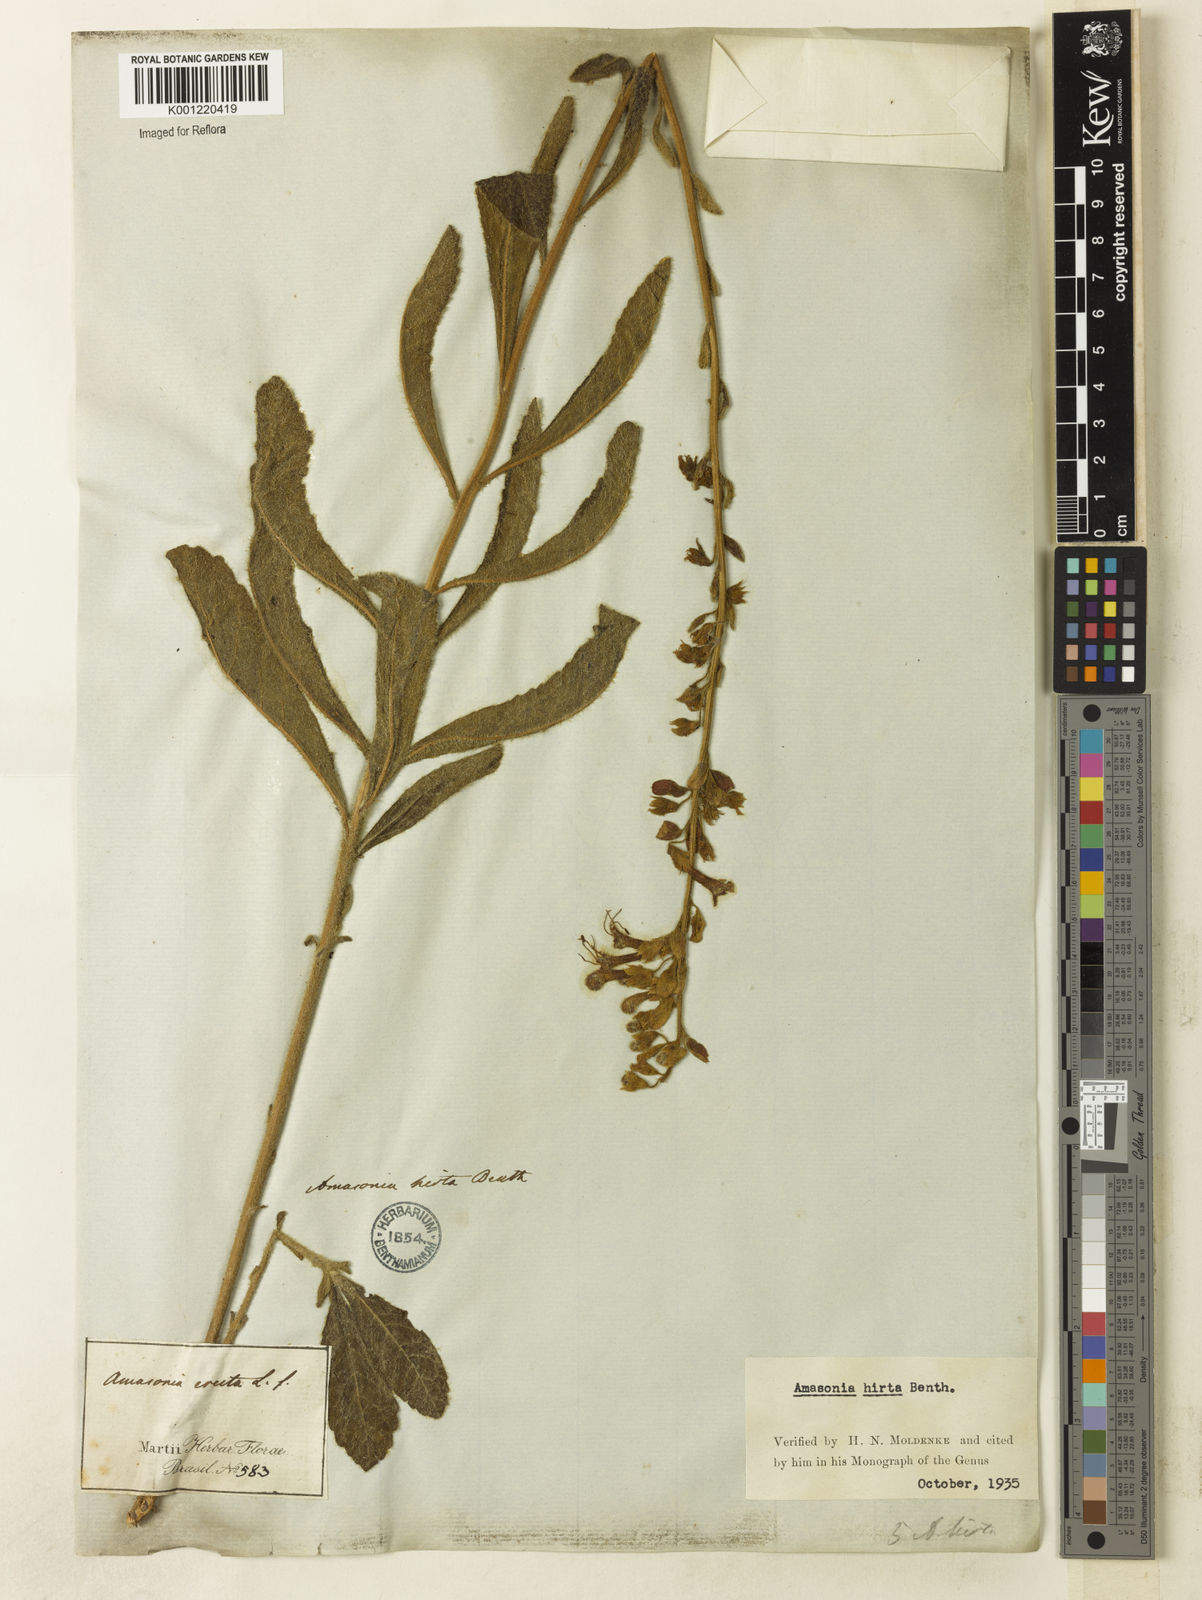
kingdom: Plantae
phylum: Tracheophyta
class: Magnoliopsida
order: Lamiales
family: Lamiaceae
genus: Amasonia
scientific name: Amasonia hirta
